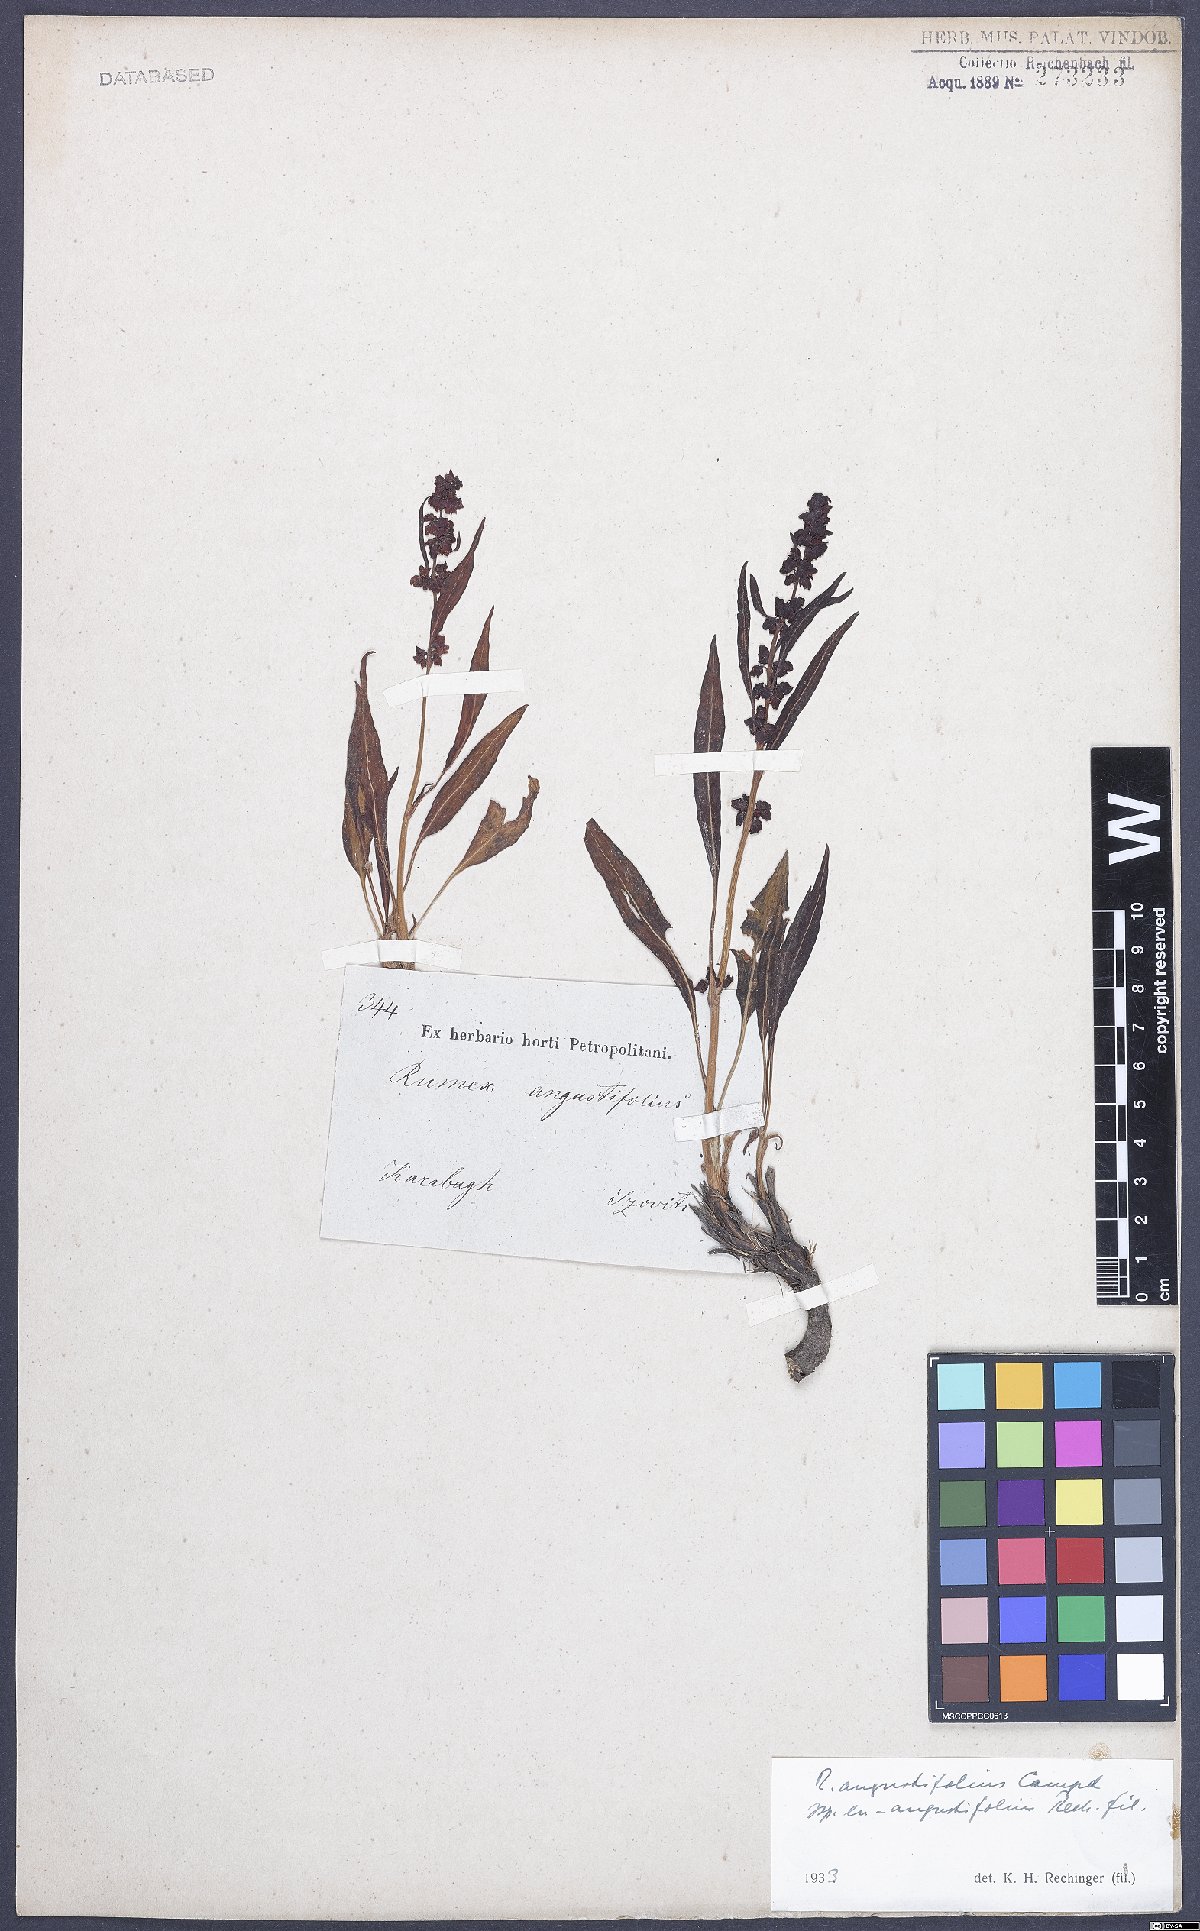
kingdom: Plantae
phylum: Tracheophyta
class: Magnoliopsida
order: Caryophyllales
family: Polygonaceae
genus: Rumex
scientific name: Rumex angustifolius
